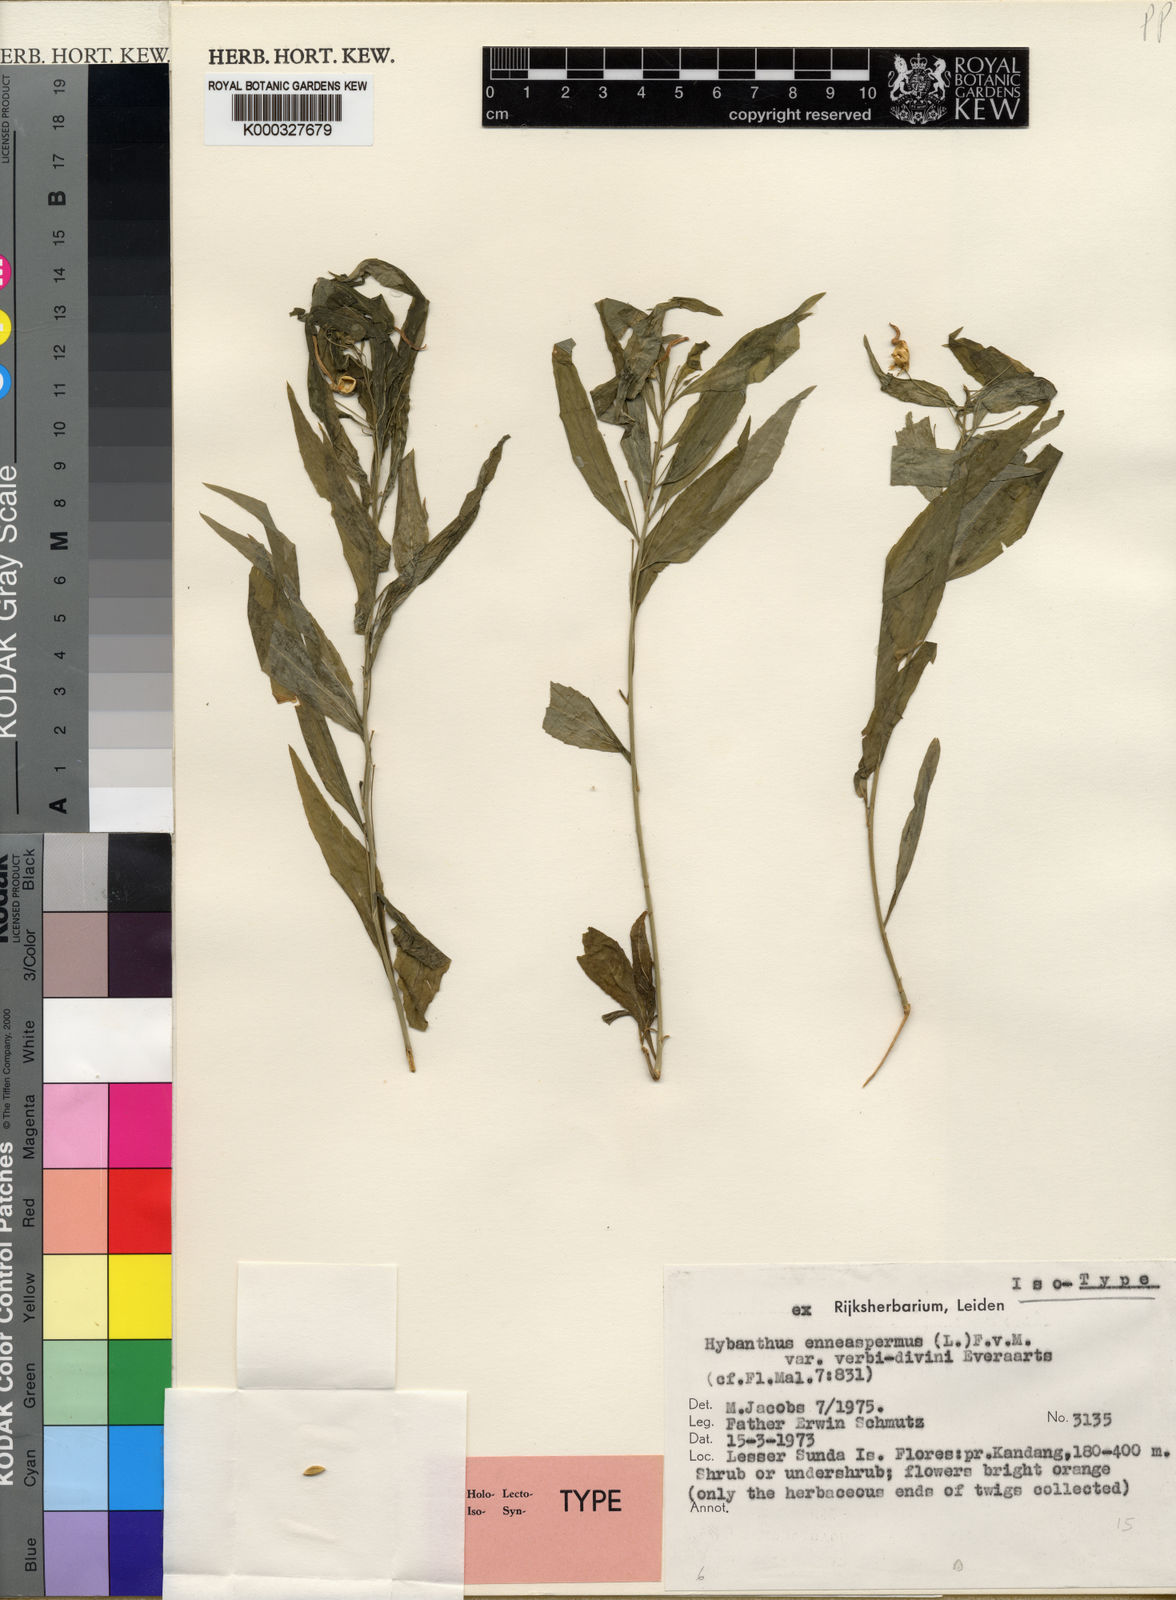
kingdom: Plantae
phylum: Tracheophyta
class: Magnoliopsida
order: Malpighiales
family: Violaceae
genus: Pigea
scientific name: Pigea verbi-divini
